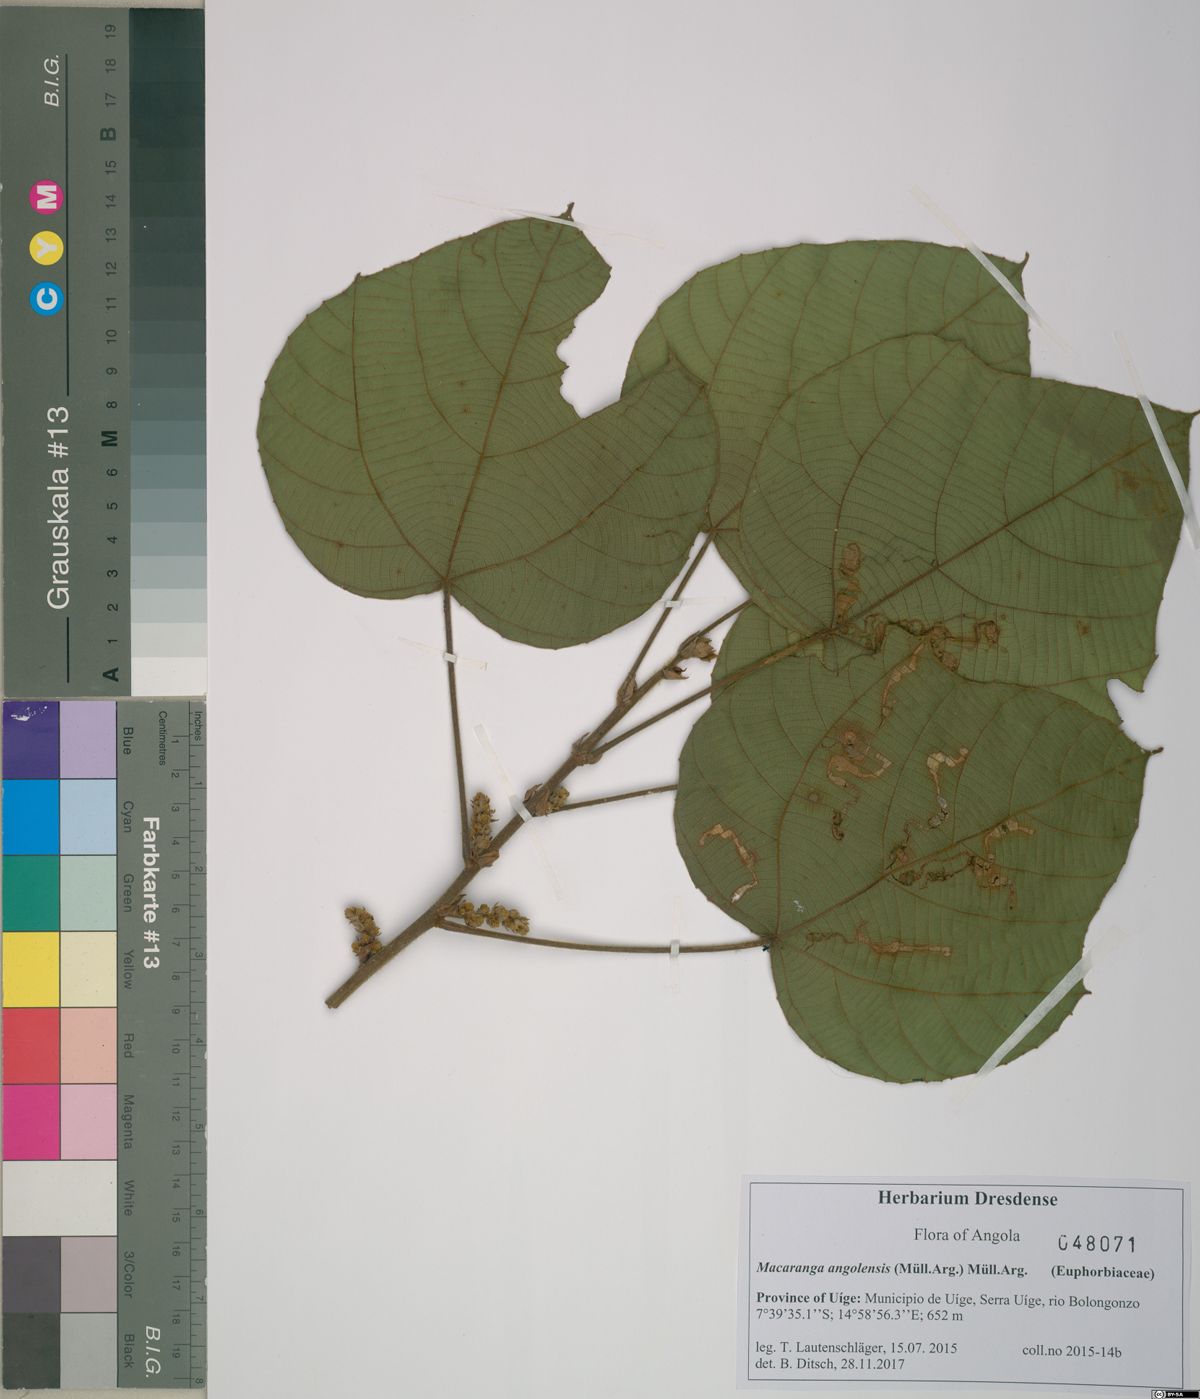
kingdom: Plantae
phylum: Tracheophyta
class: Magnoliopsida
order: Malpighiales
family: Euphorbiaceae
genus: Macaranga
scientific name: Macaranga angolensis
